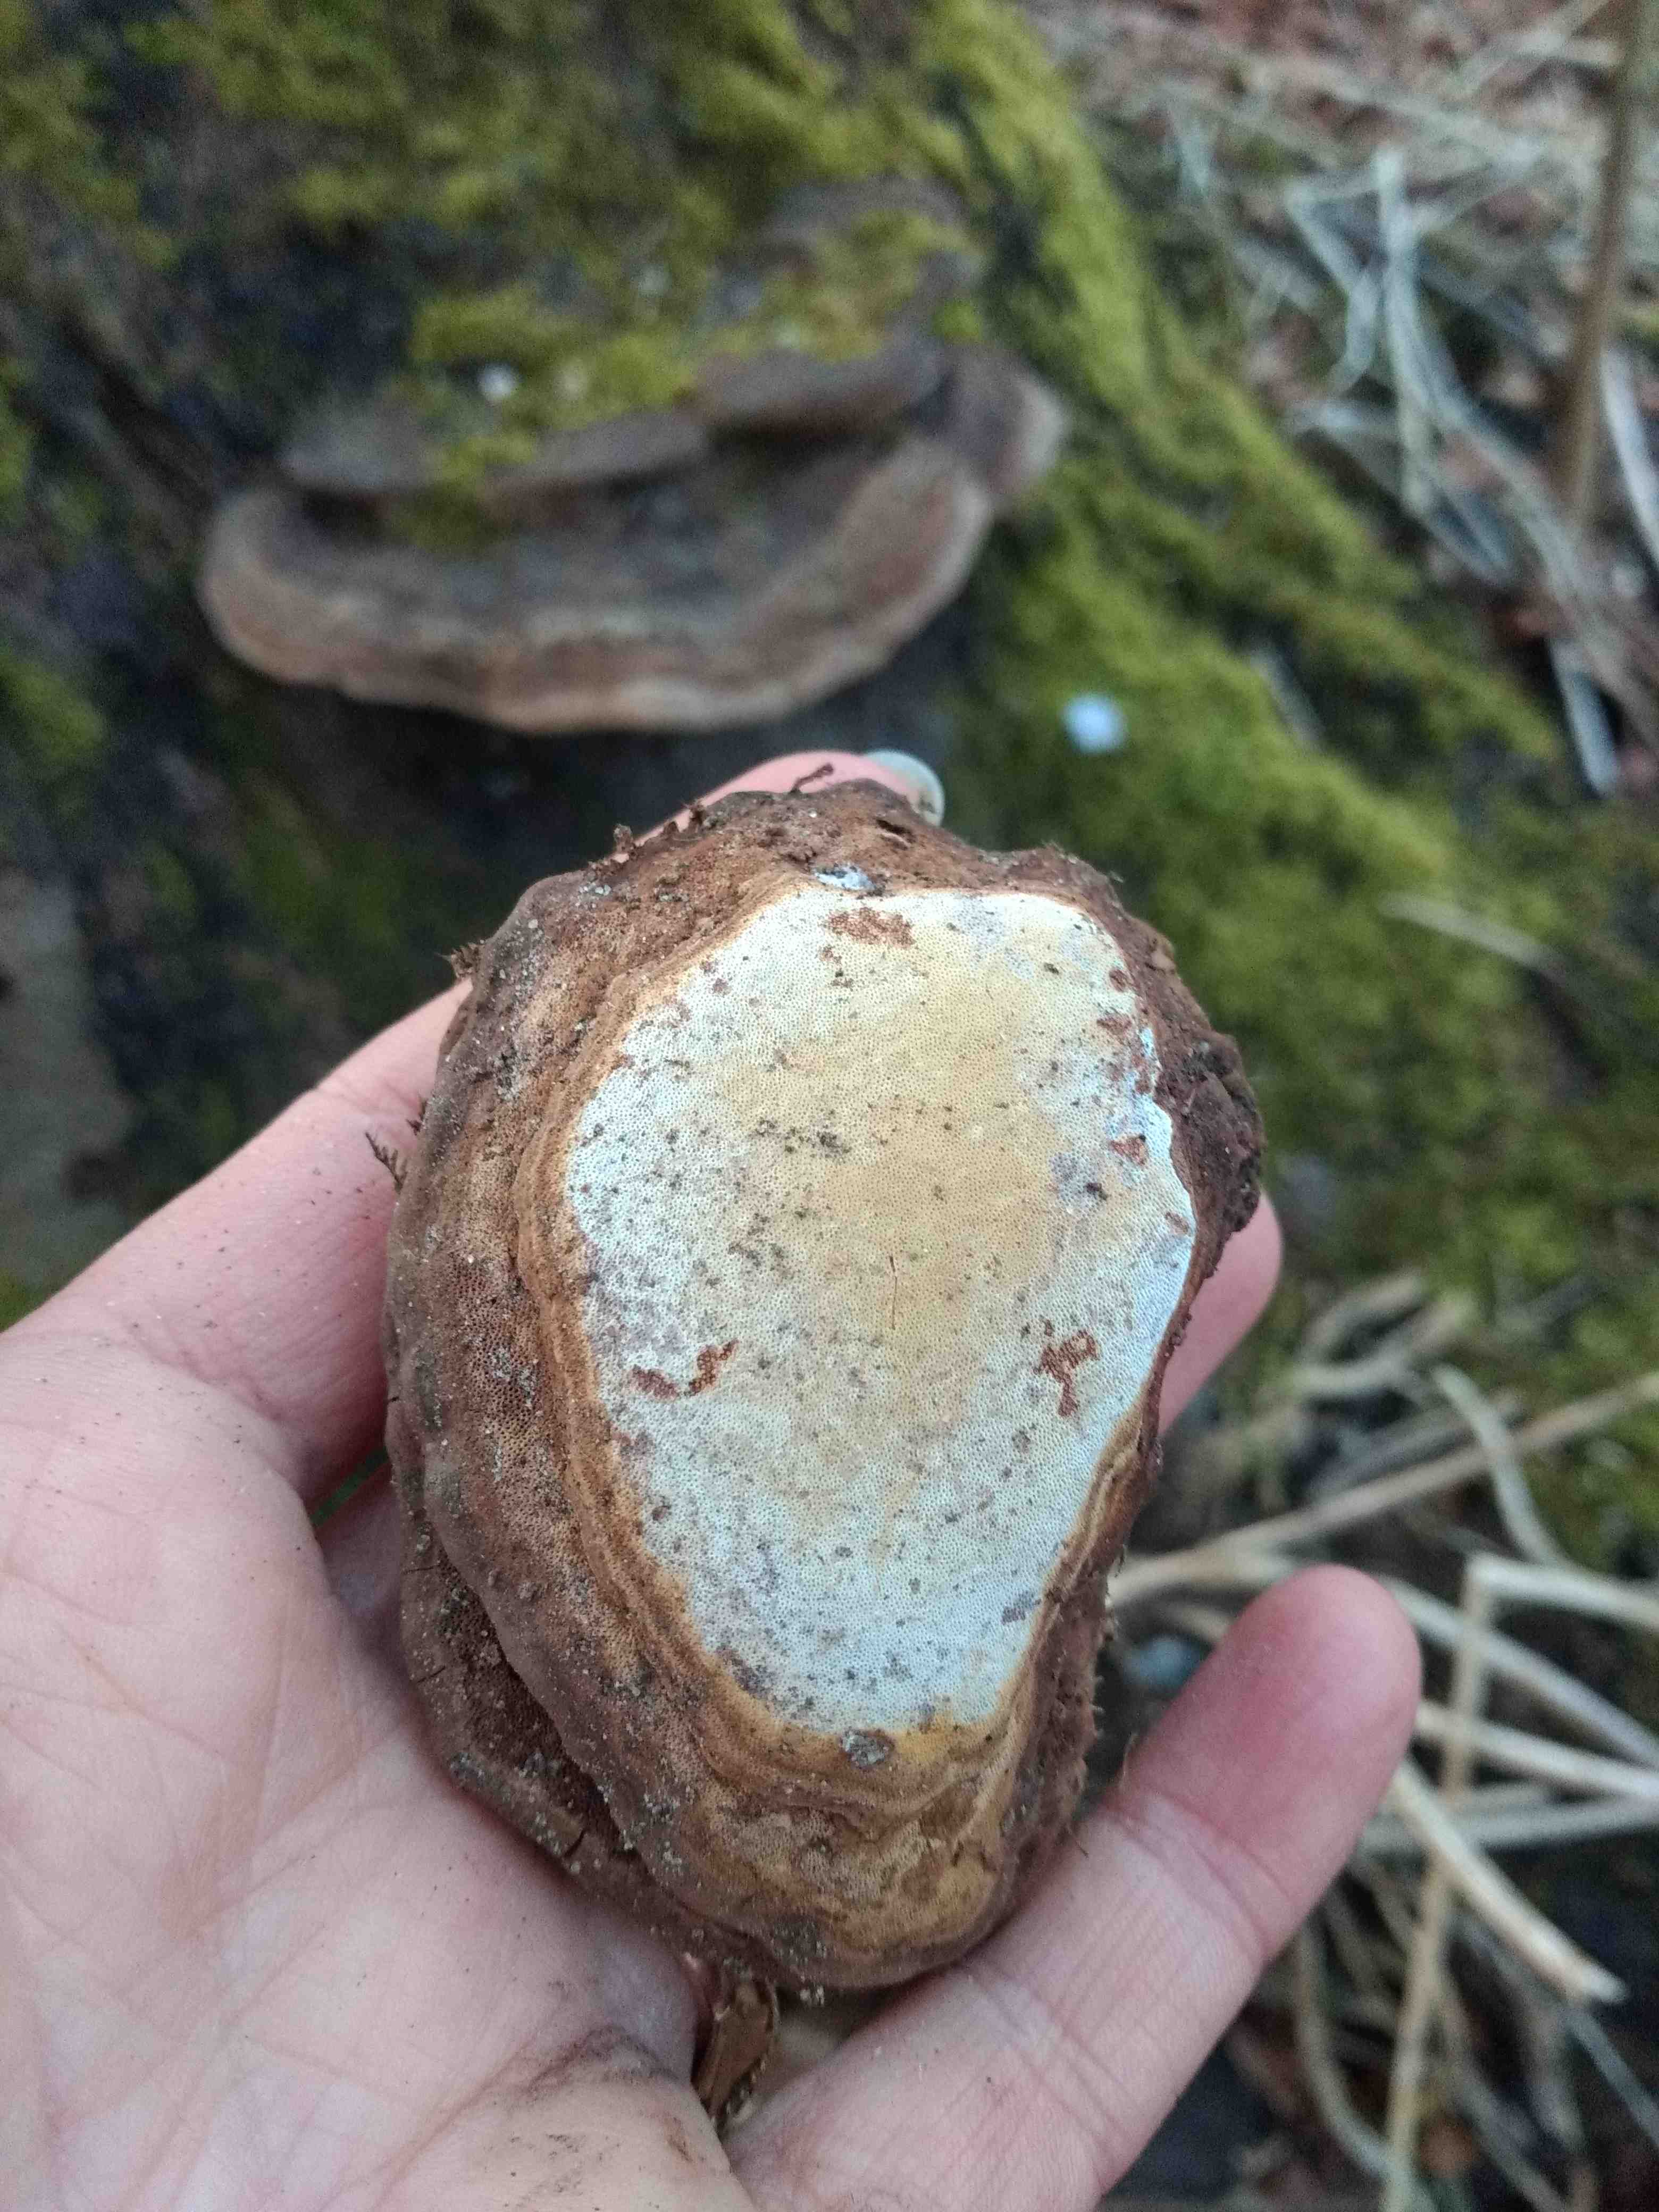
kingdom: Fungi
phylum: Basidiomycota
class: Agaricomycetes
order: Polyporales
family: Polyporaceae
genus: Ganoderma
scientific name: Ganoderma applanatum
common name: flad lakporesvamp
